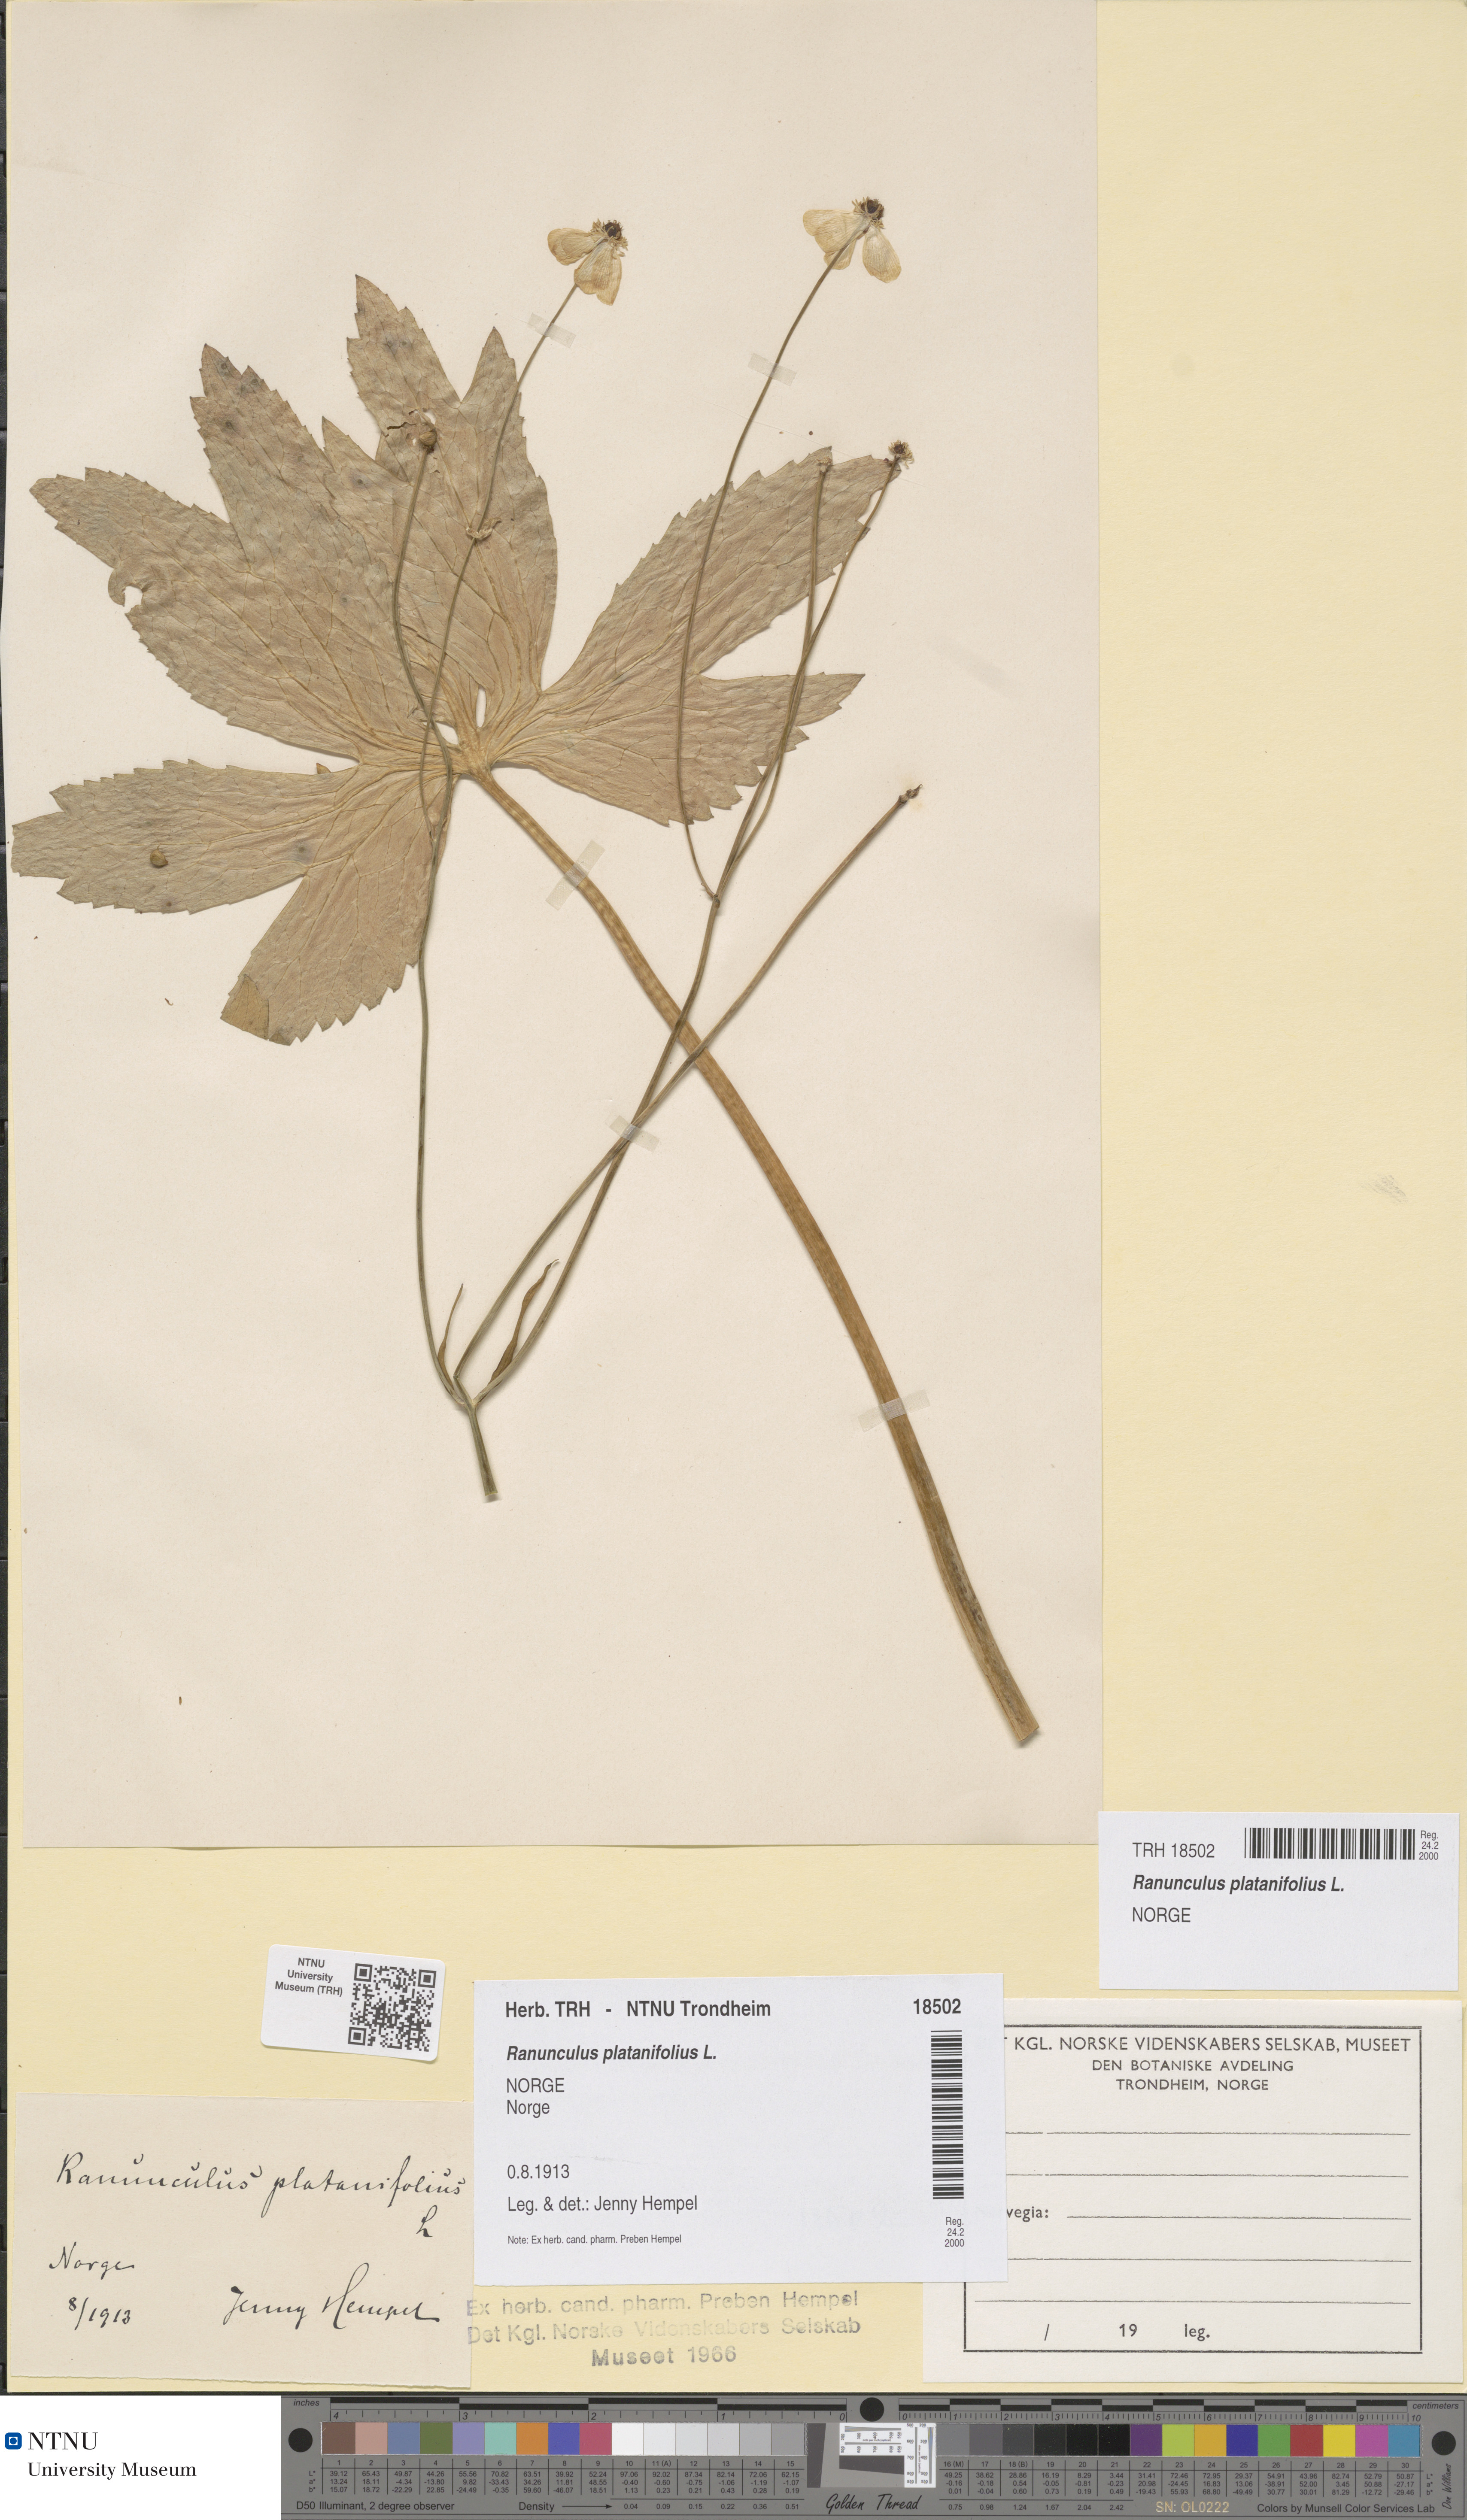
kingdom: Plantae
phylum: Tracheophyta
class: Magnoliopsida
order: Ranunculales
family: Ranunculaceae
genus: Ranunculus
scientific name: Ranunculus platanifolius
